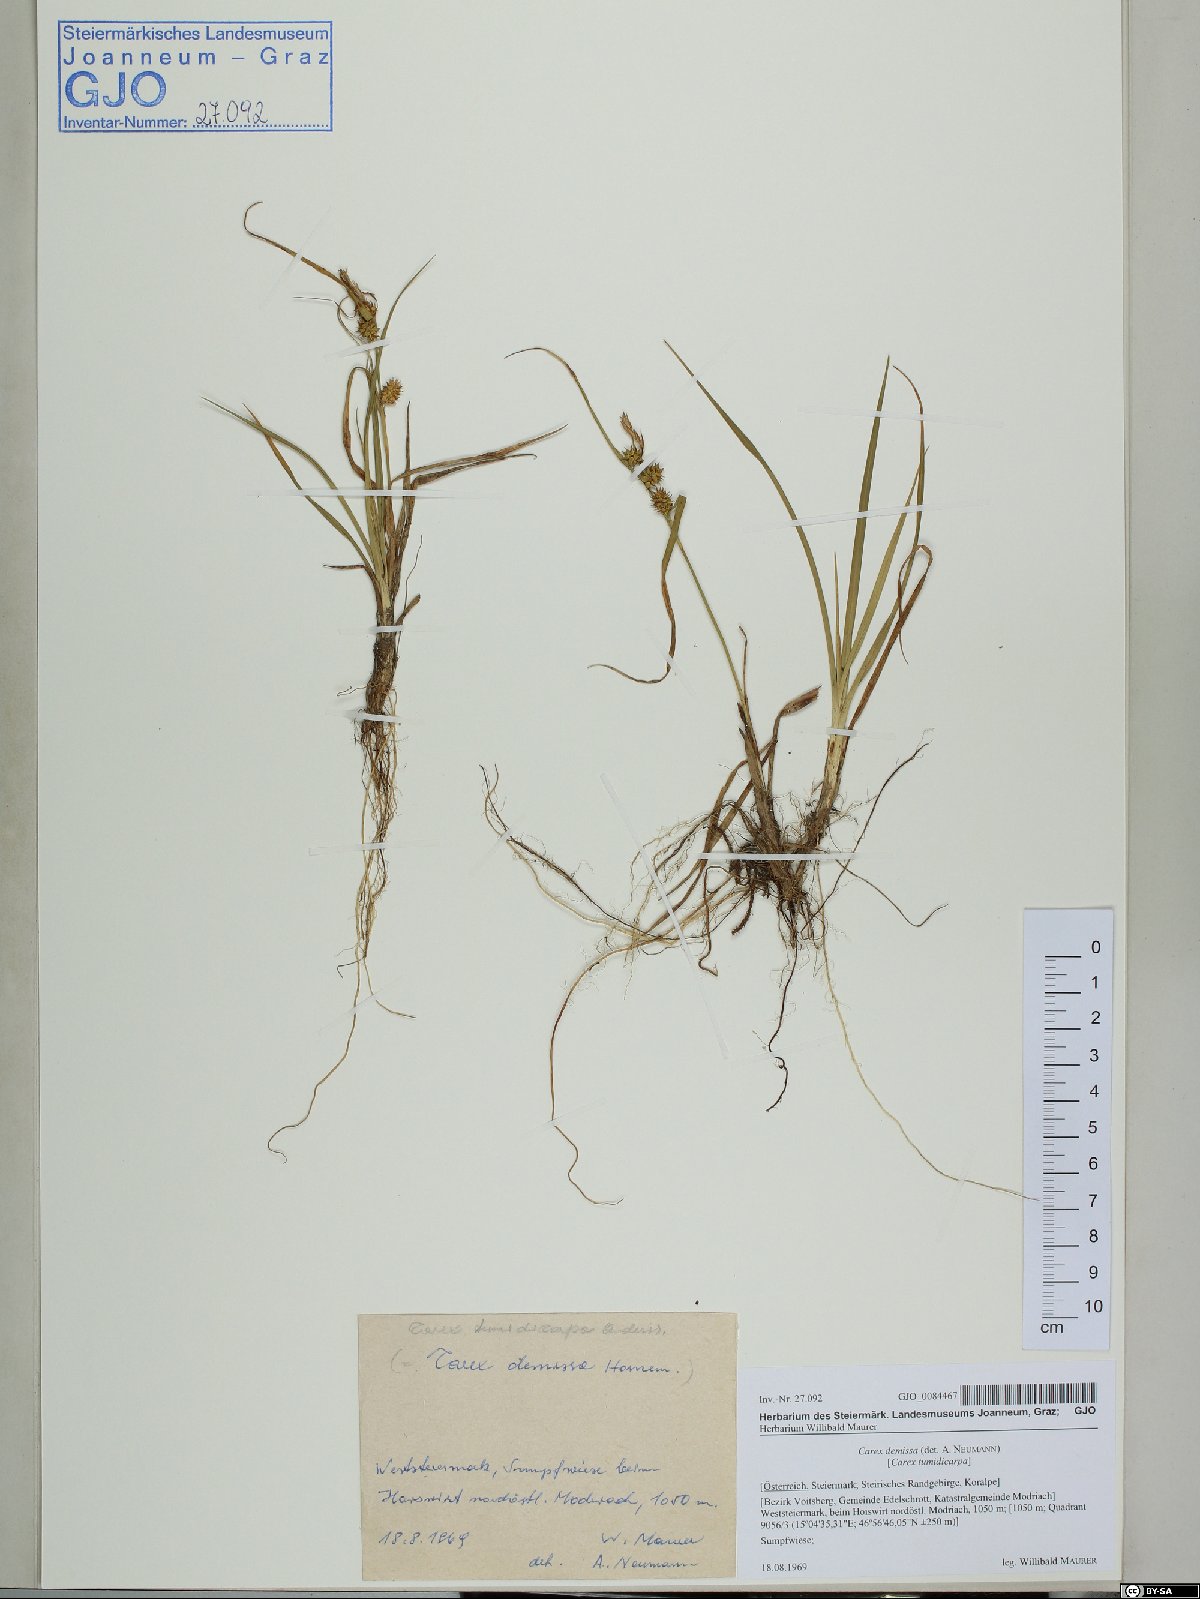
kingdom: Plantae
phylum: Tracheophyta
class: Liliopsida
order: Poales
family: Cyperaceae
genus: Carex
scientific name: Carex demissa
